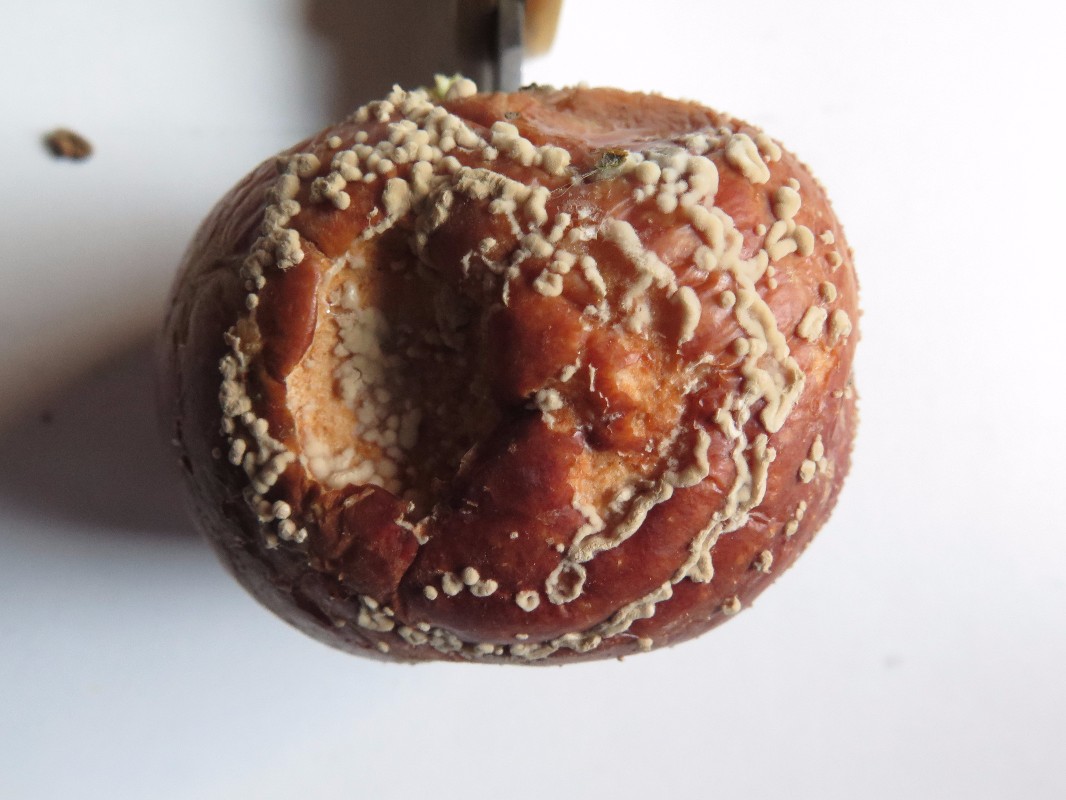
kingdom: Fungi
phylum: Ascomycota
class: Leotiomycetes
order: Helotiales
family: Sclerotiniaceae
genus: Monilinia
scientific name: Monilinia laxa
